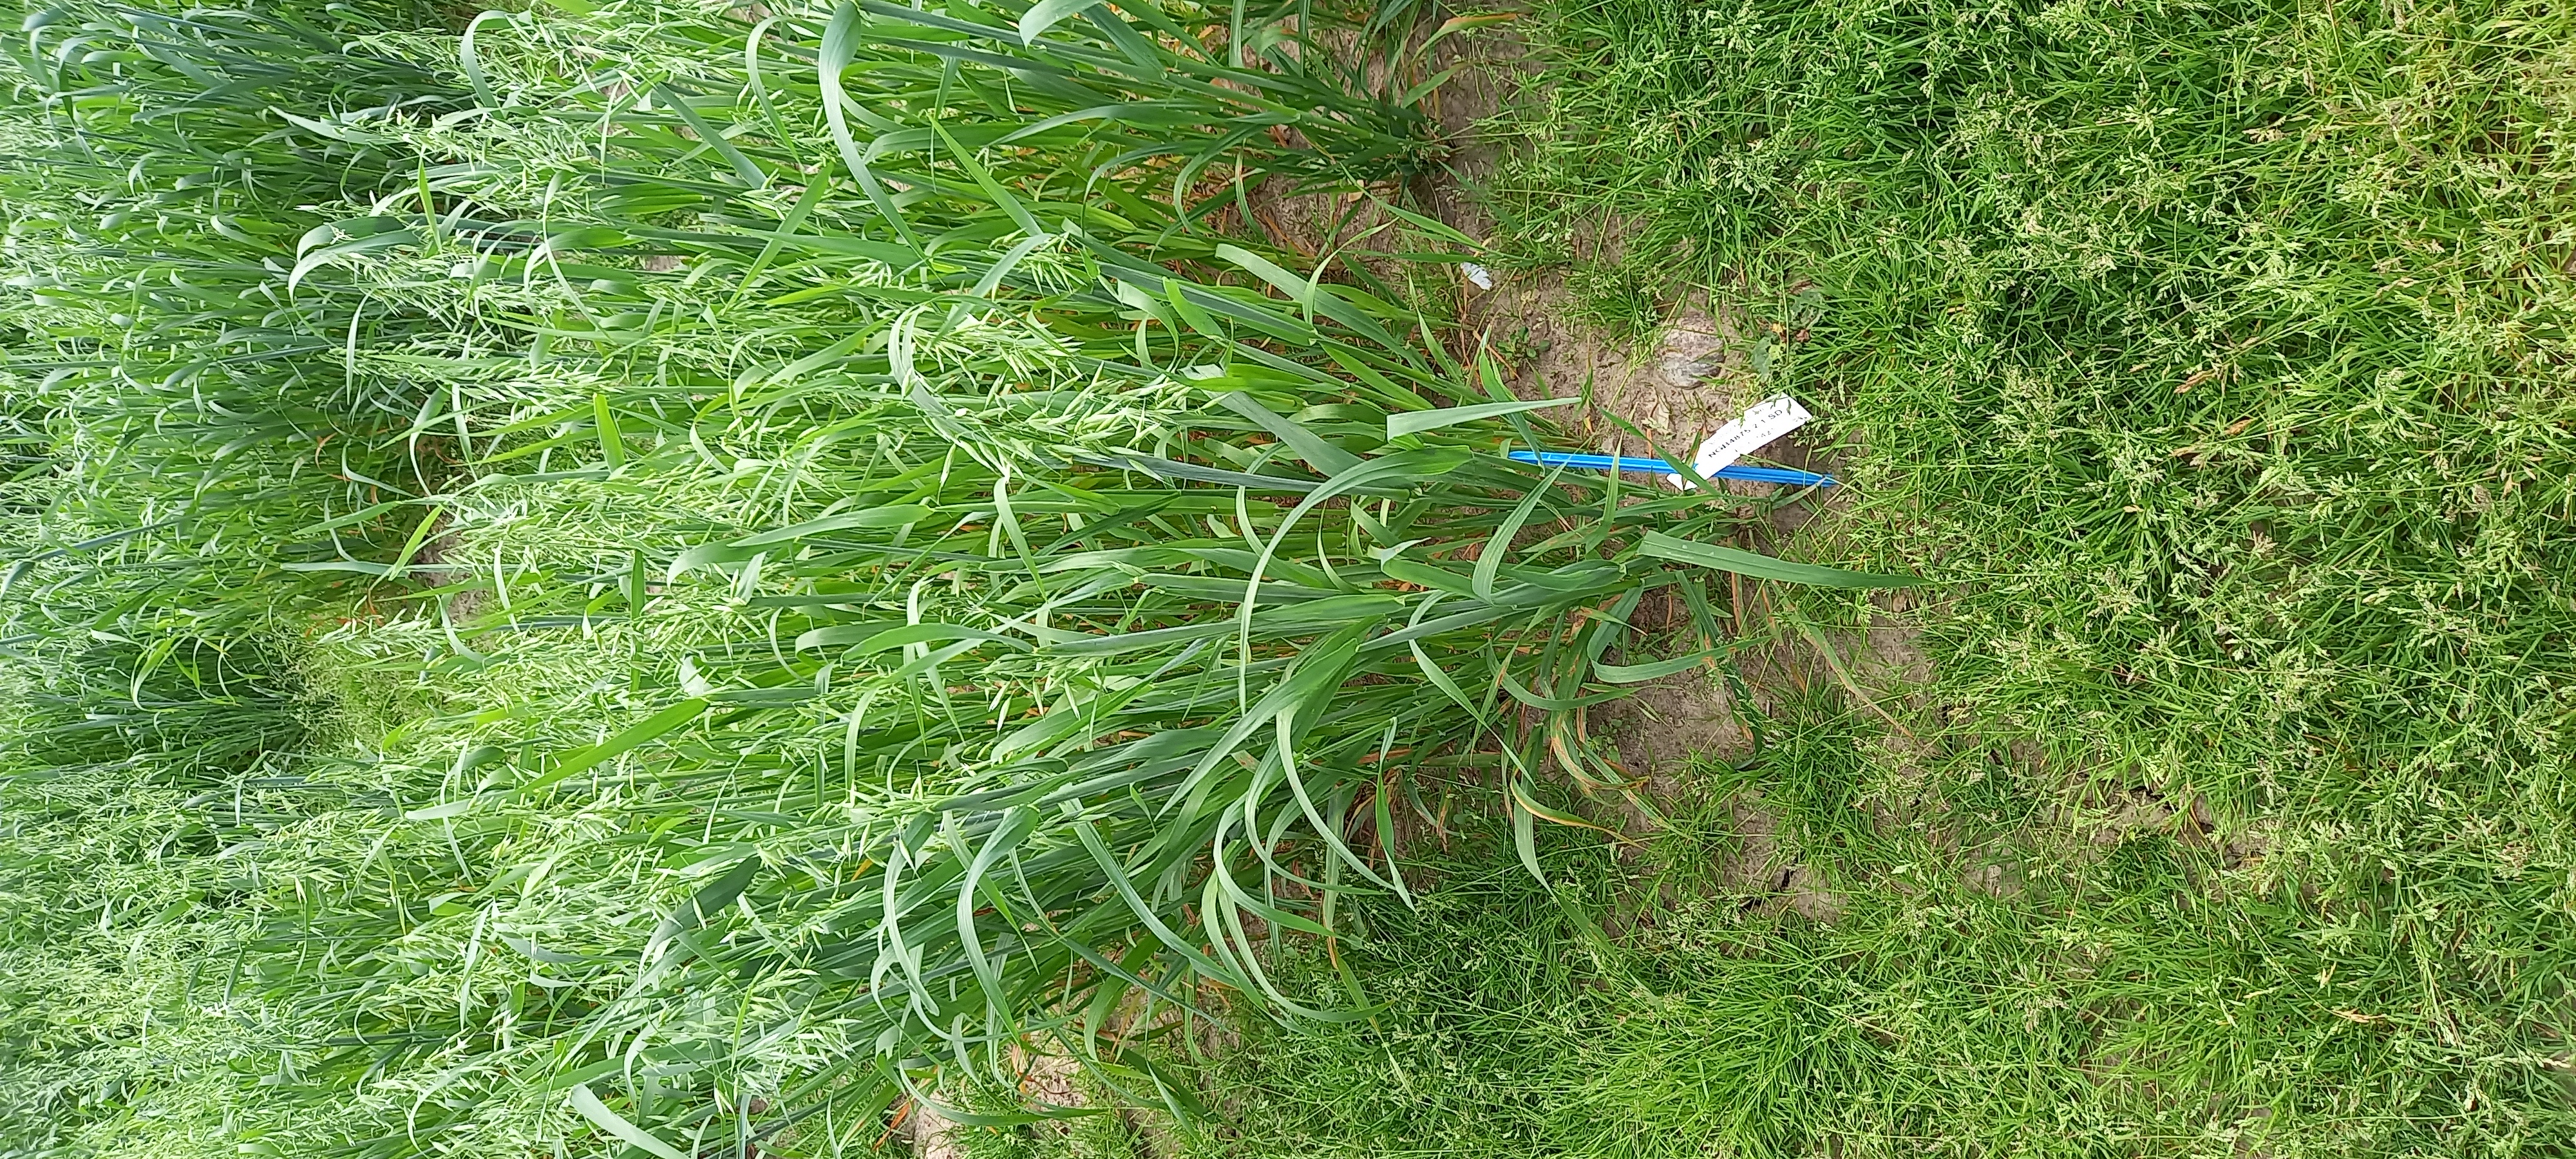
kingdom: Plantae
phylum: Tracheophyta
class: Liliopsida
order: Poales
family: Poaceae
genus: Avena
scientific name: Avena sativa
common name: Oat
